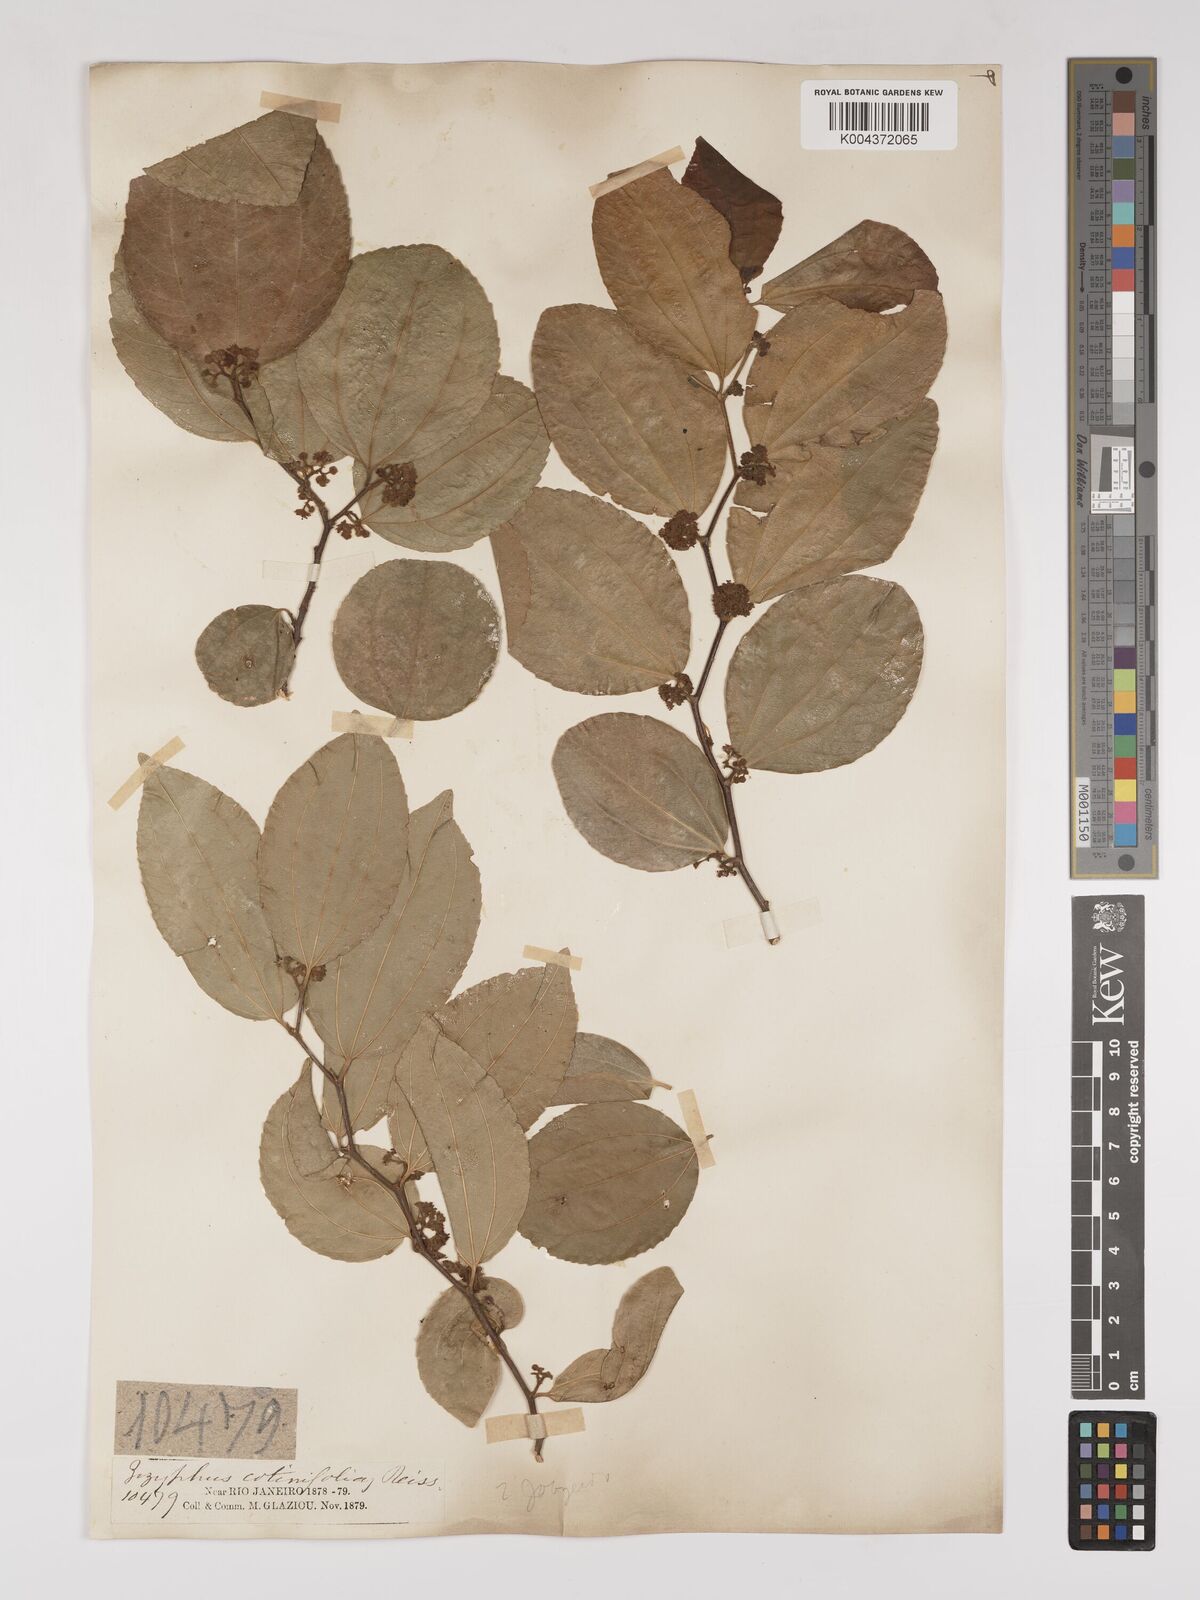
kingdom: Plantae
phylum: Tracheophyta
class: Magnoliopsida
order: Rosales
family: Rhamnaceae
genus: Sarcomphalus
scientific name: Sarcomphalus cotinifolius
